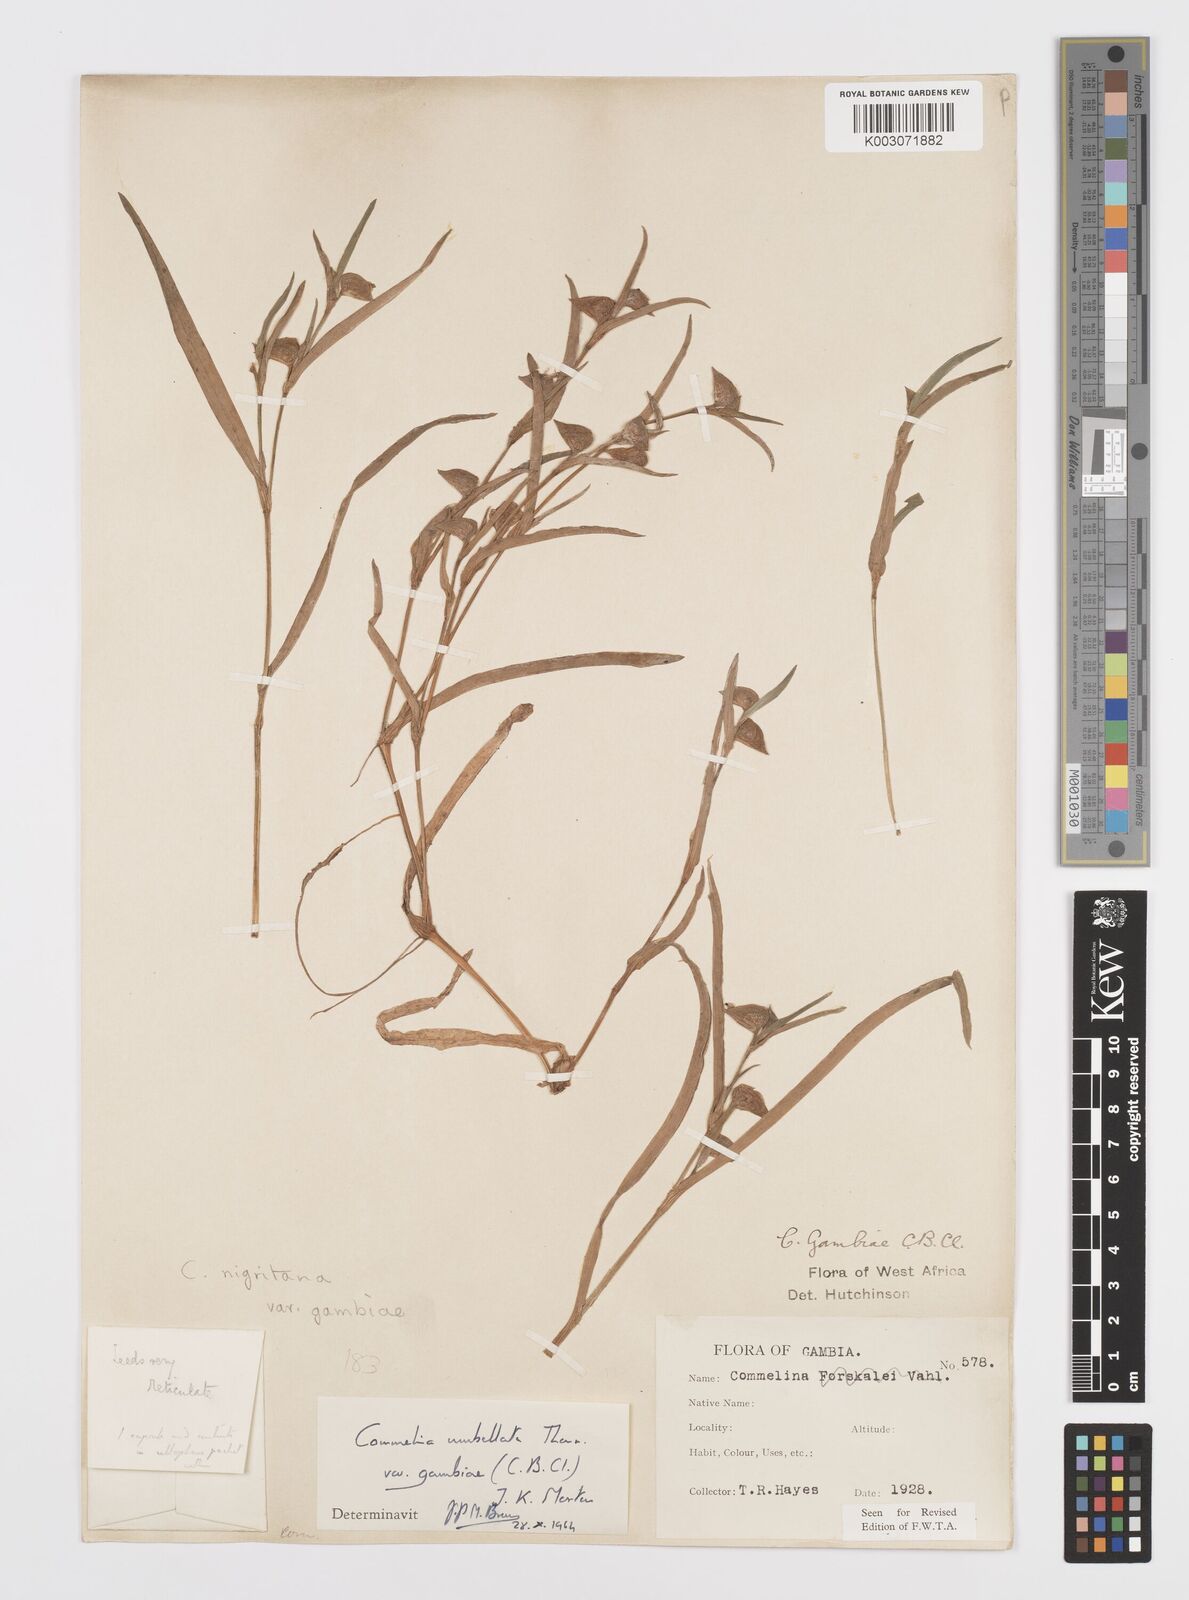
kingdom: Plantae
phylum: Tracheophyta
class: Liliopsida
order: Commelinales
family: Commelinaceae
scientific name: Commelinaceae
